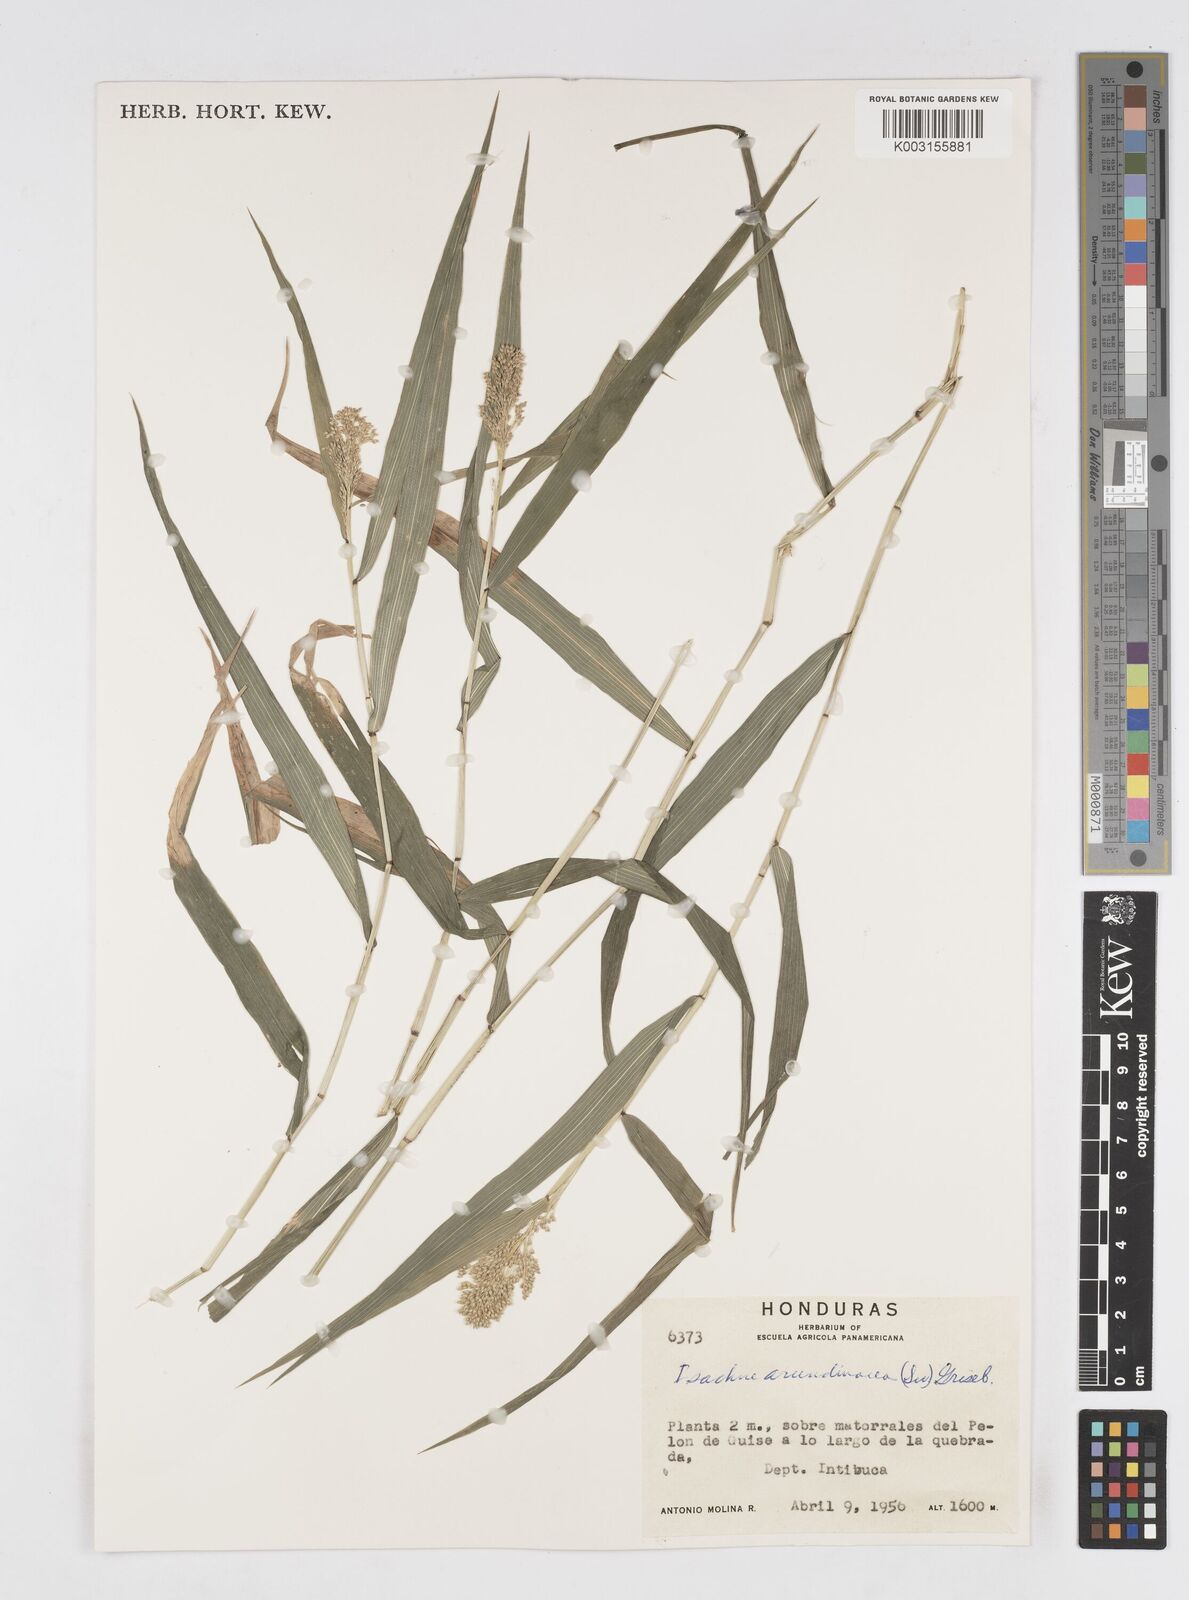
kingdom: Plantae
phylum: Tracheophyta
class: Liliopsida
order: Poales
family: Poaceae
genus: Isachne
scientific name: Isachne arundinacea
